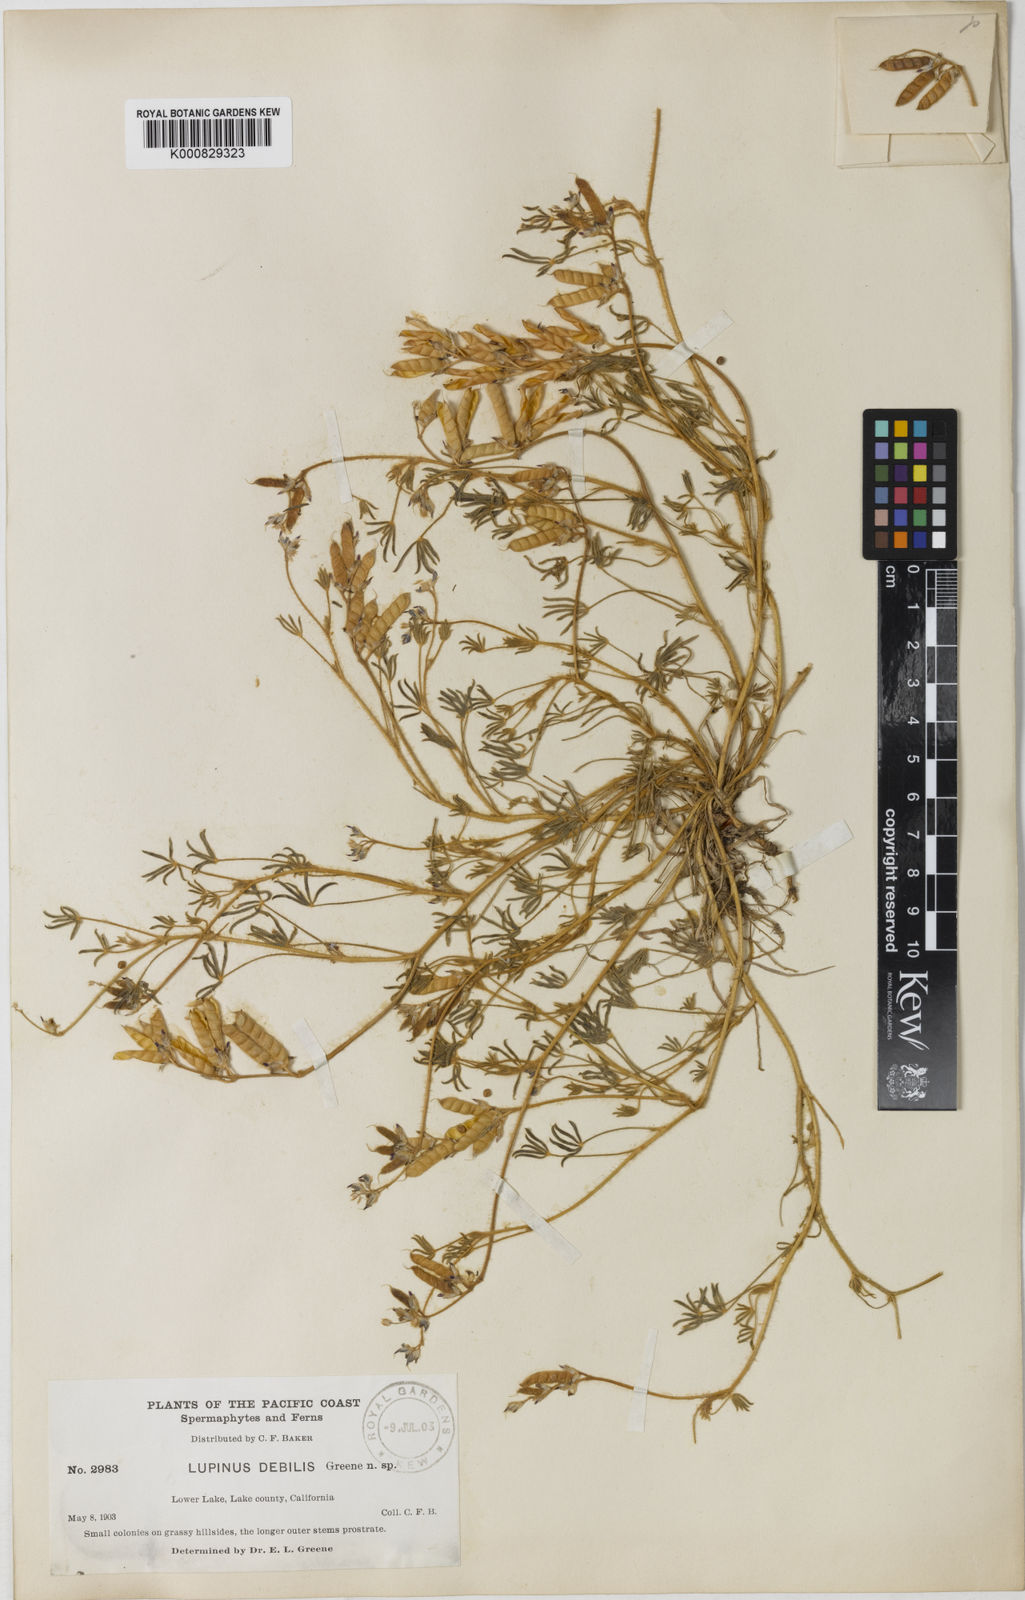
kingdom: Plantae
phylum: Tracheophyta
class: Magnoliopsida
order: Fabales
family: Fabaceae
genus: Lupinus
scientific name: Lupinus
